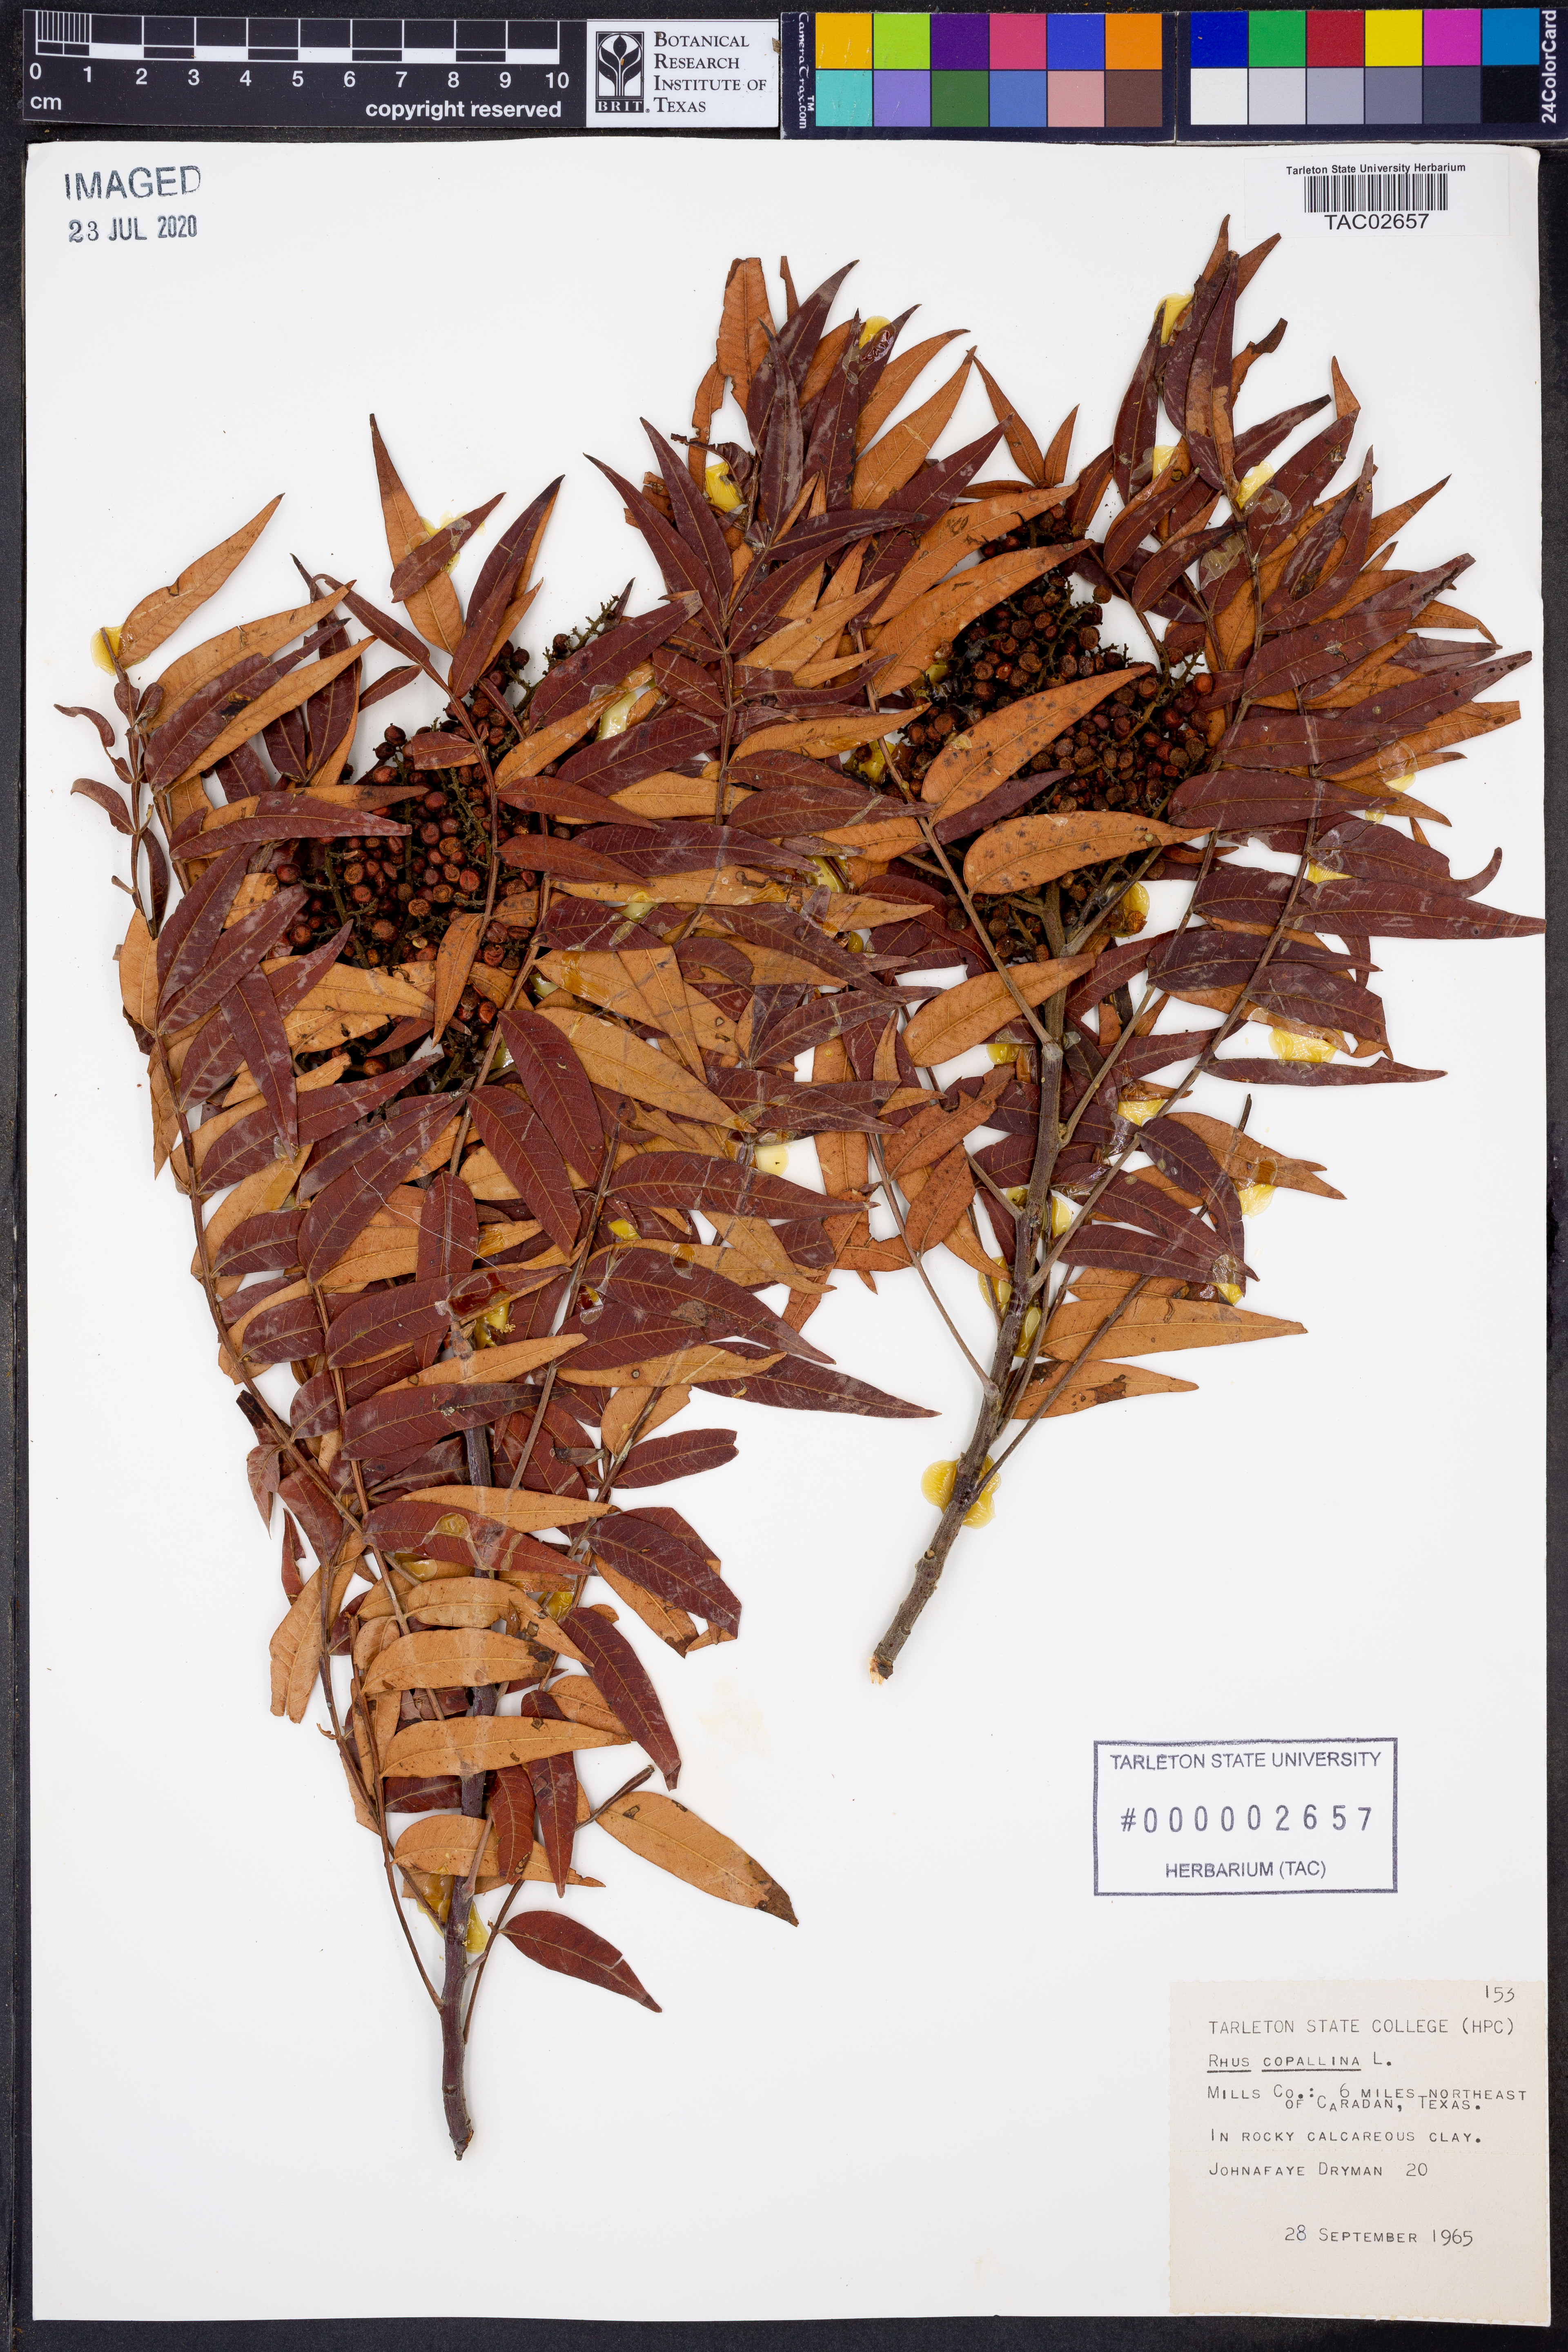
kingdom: Plantae
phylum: Tracheophyta
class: Magnoliopsida
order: Sapindales
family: Anacardiaceae
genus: Rhus
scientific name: Rhus copallina
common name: Shining sumac
